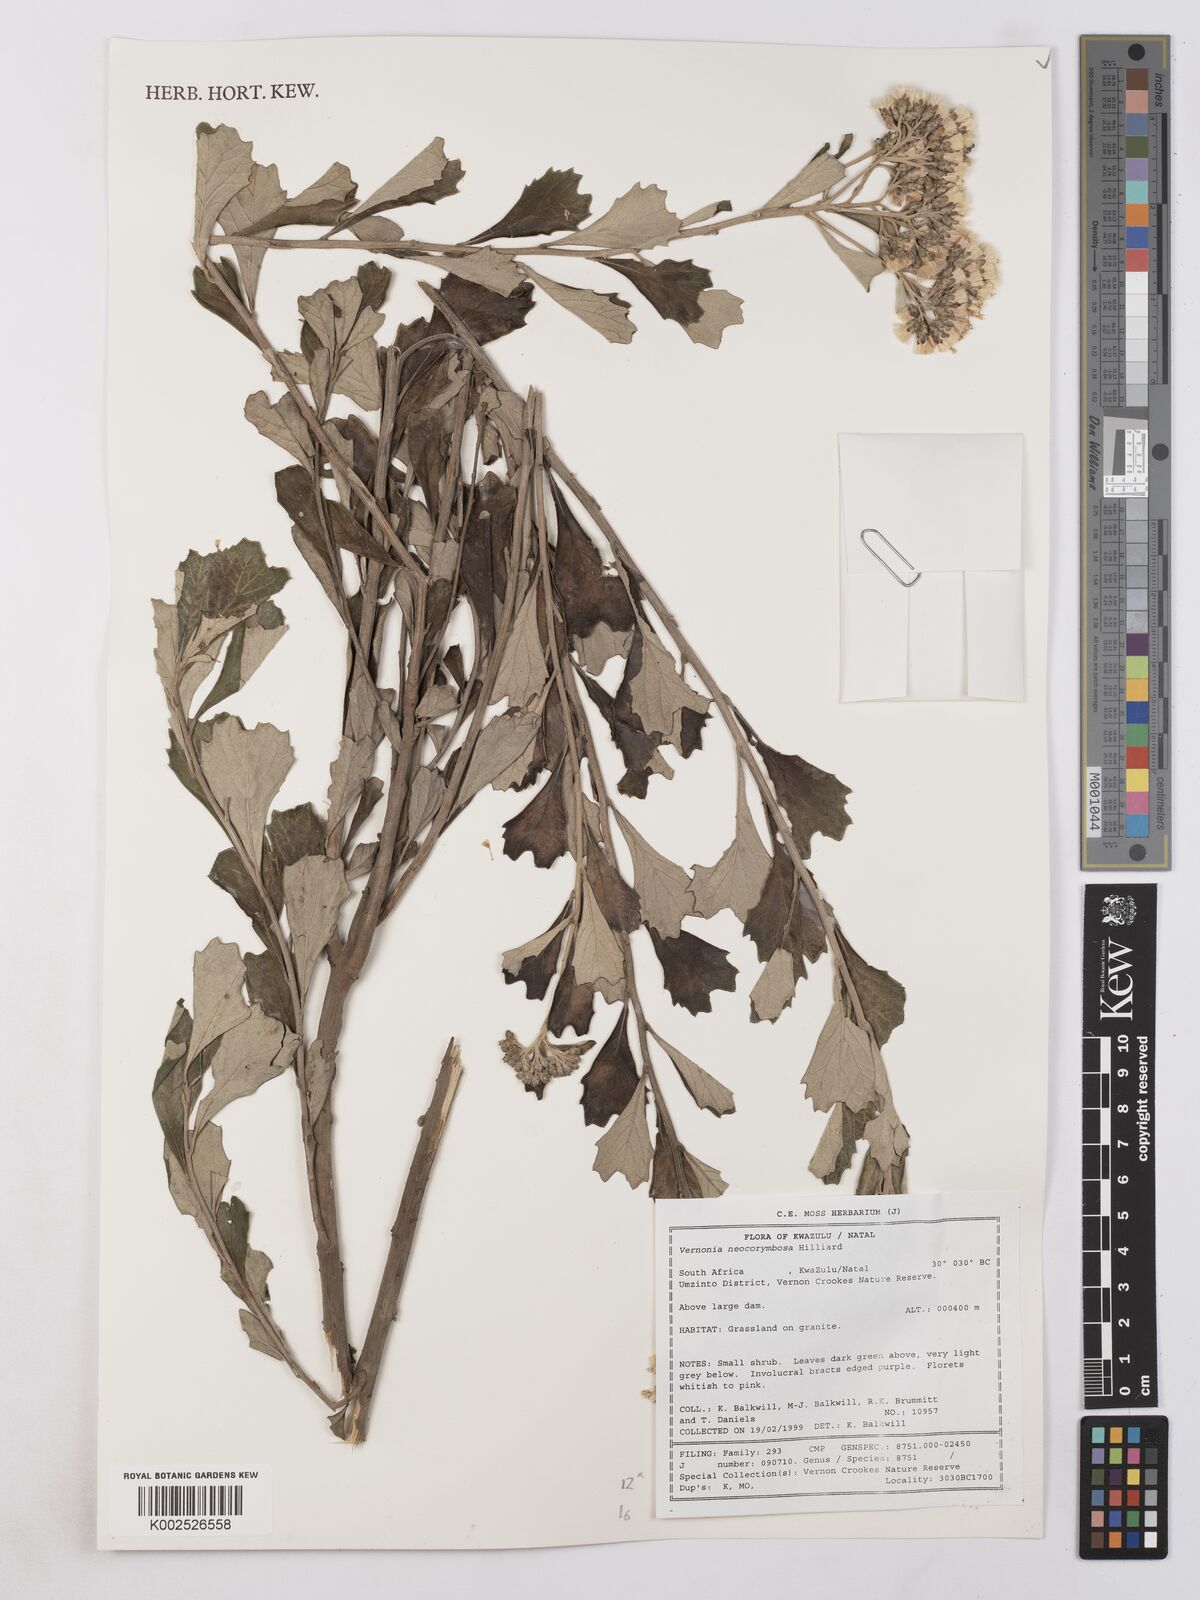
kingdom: Plantae
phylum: Tracheophyta
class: Magnoliopsida
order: Asterales
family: Asteraceae
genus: Gymnanthemum
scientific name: Gymnanthemum corymbosum
